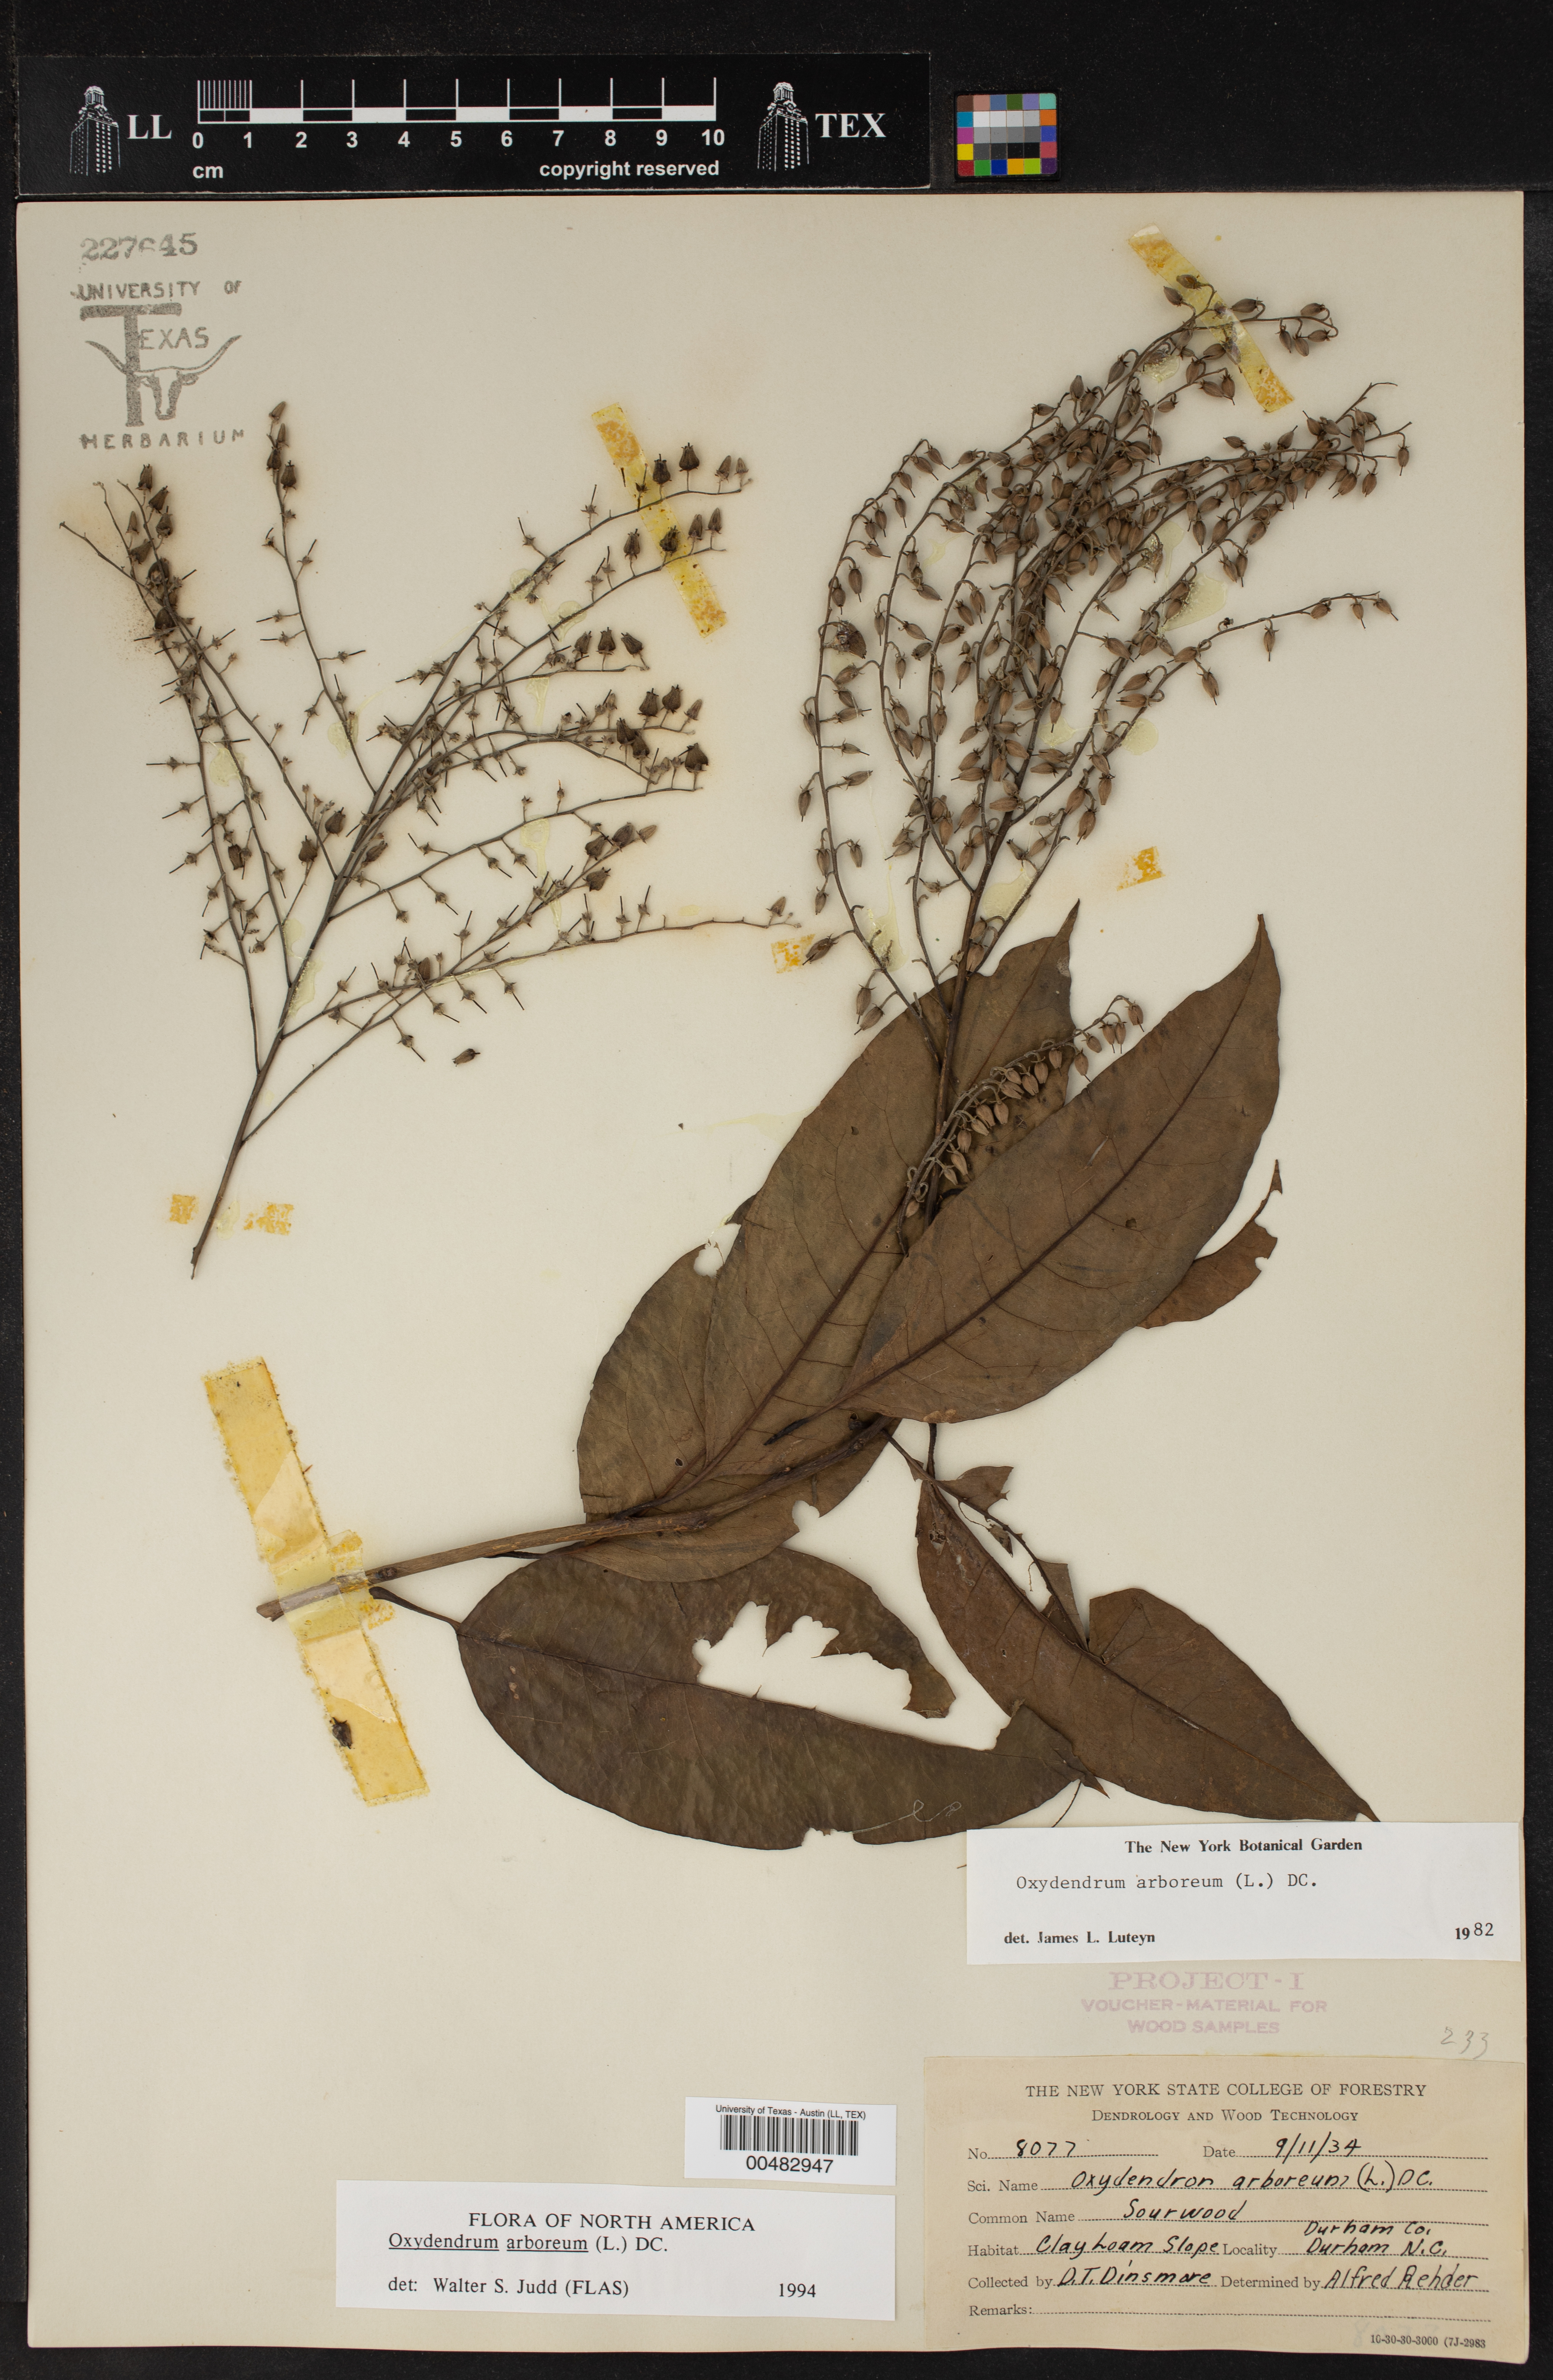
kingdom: Plantae
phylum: Tracheophyta
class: Magnoliopsida
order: Ericales
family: Ericaceae
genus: Oxydendrum
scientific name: Oxydendrum arboreum
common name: Sourwood
